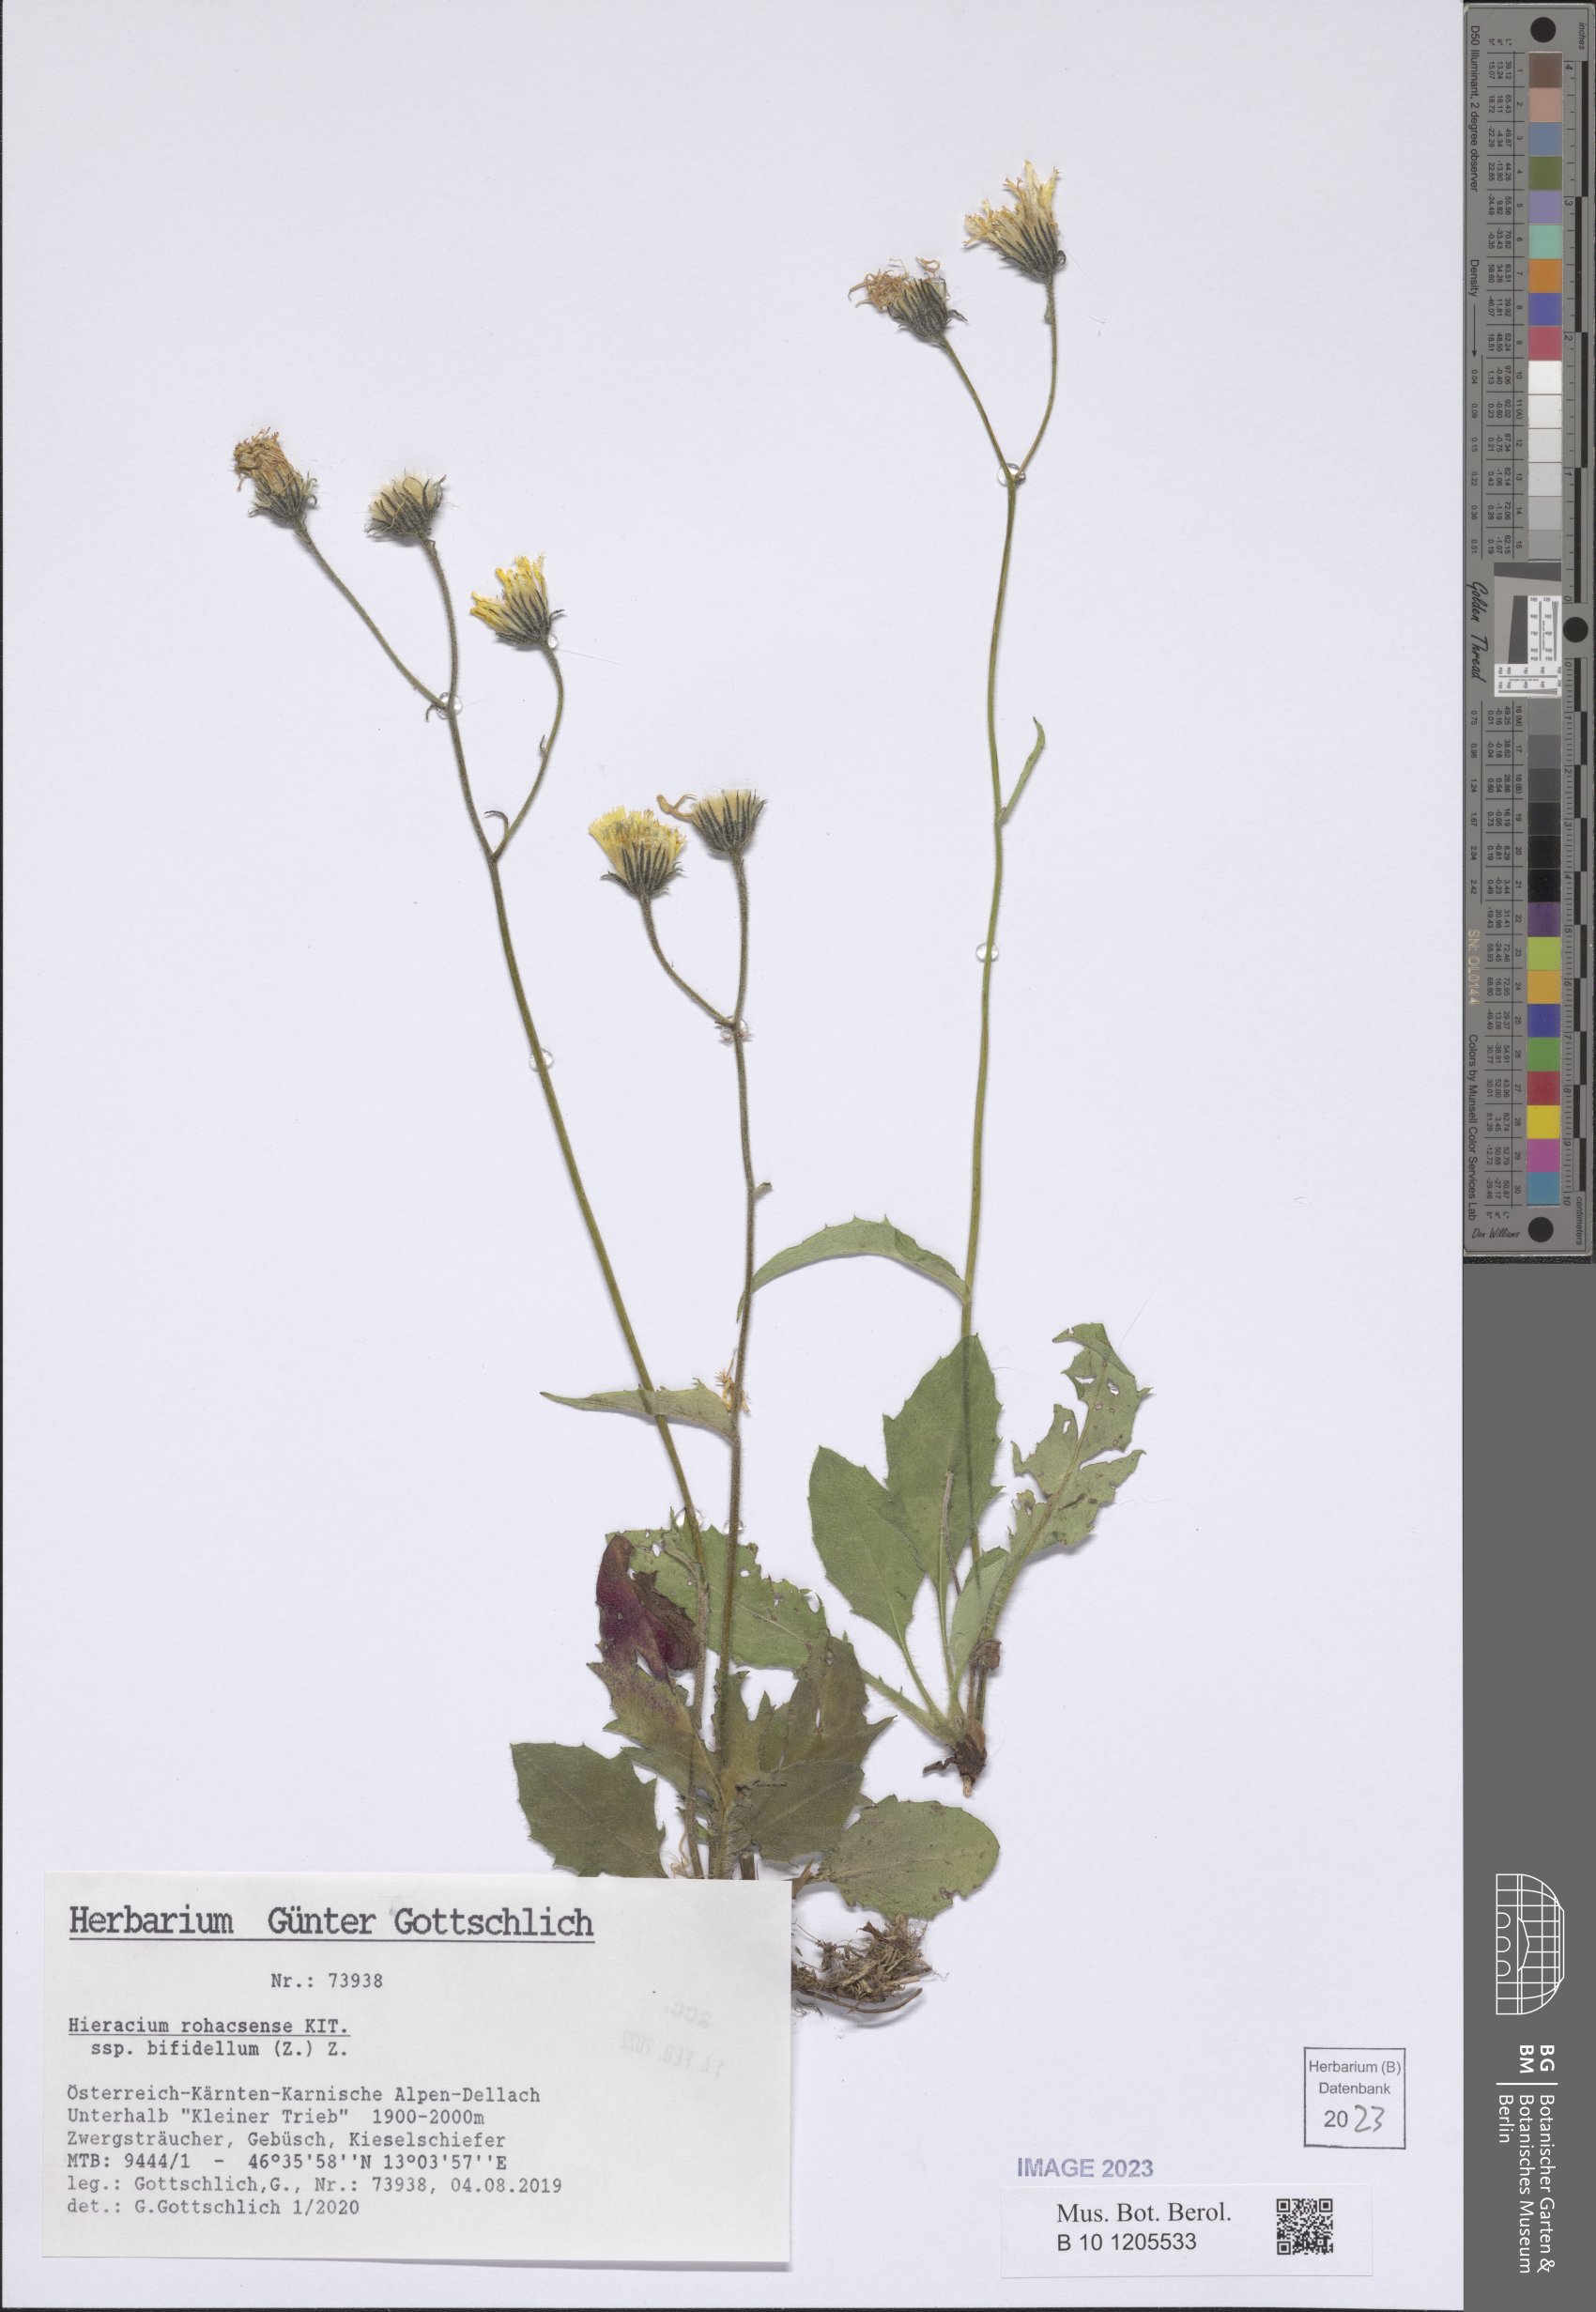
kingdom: Plantae
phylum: Tracheophyta
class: Magnoliopsida
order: Asterales
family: Asteraceae
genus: Hieracium
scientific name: Hieracium rauzense
